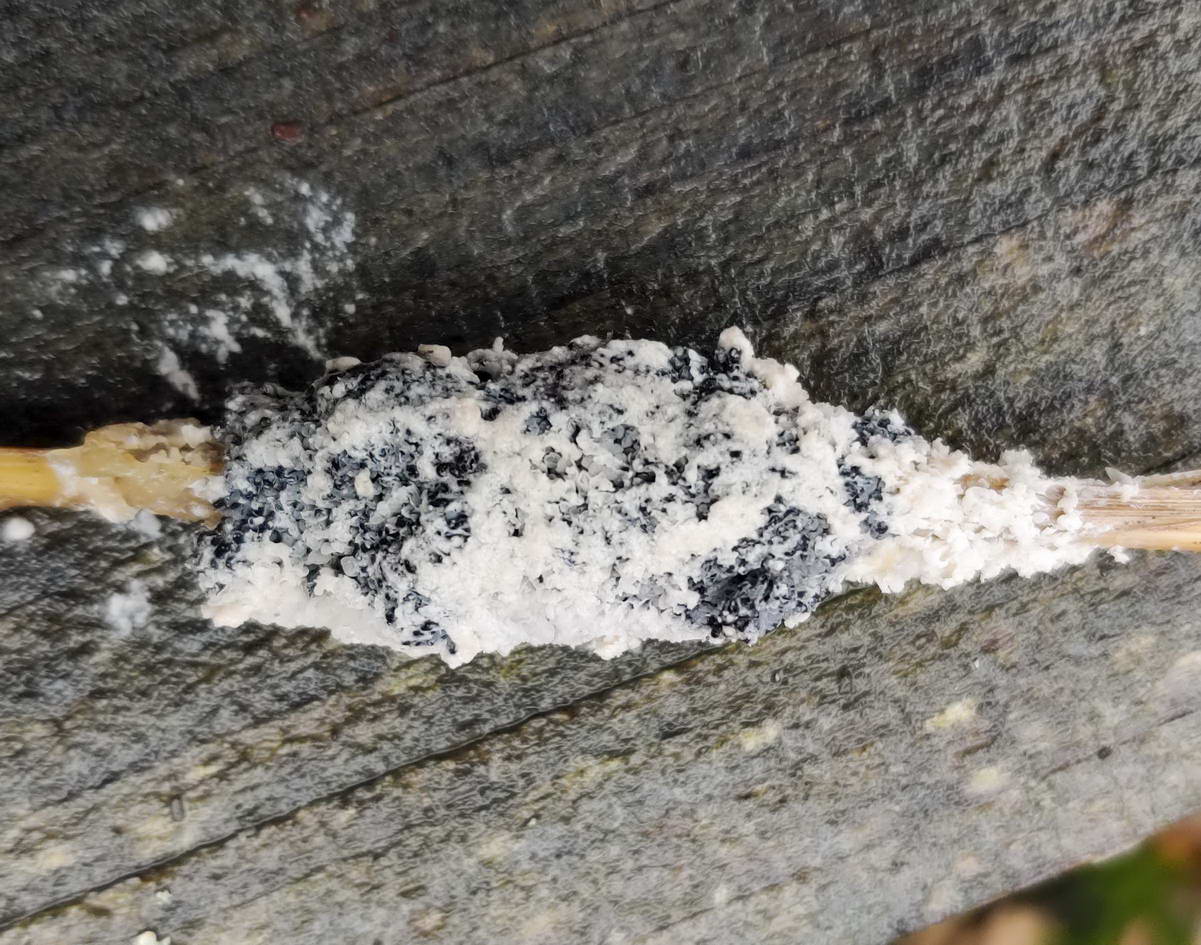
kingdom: Protozoa
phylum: Mycetozoa
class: Myxomycetes
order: Physarales
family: Physaraceae
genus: Didymium
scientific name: Didymium
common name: urteskum
